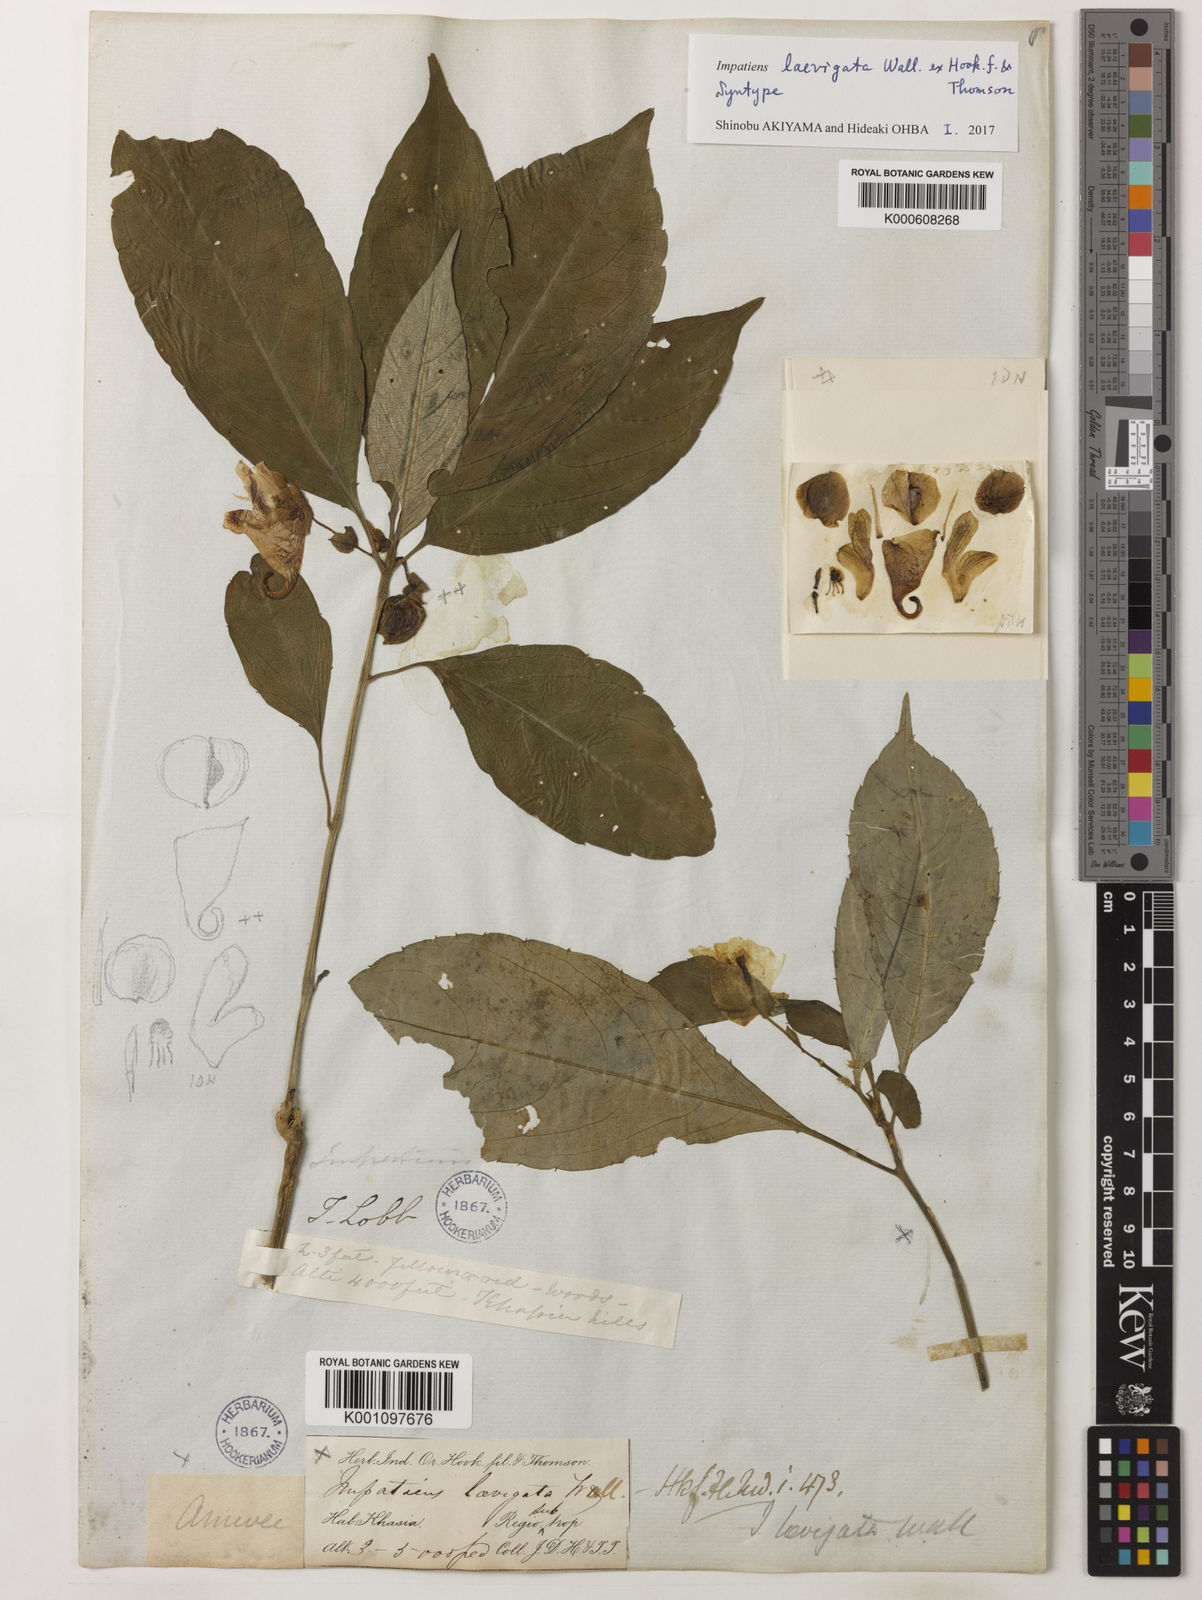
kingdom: Plantae
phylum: Tracheophyta
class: Magnoliopsida
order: Ericales
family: Balsaminaceae
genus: Impatiens
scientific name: Impatiens
